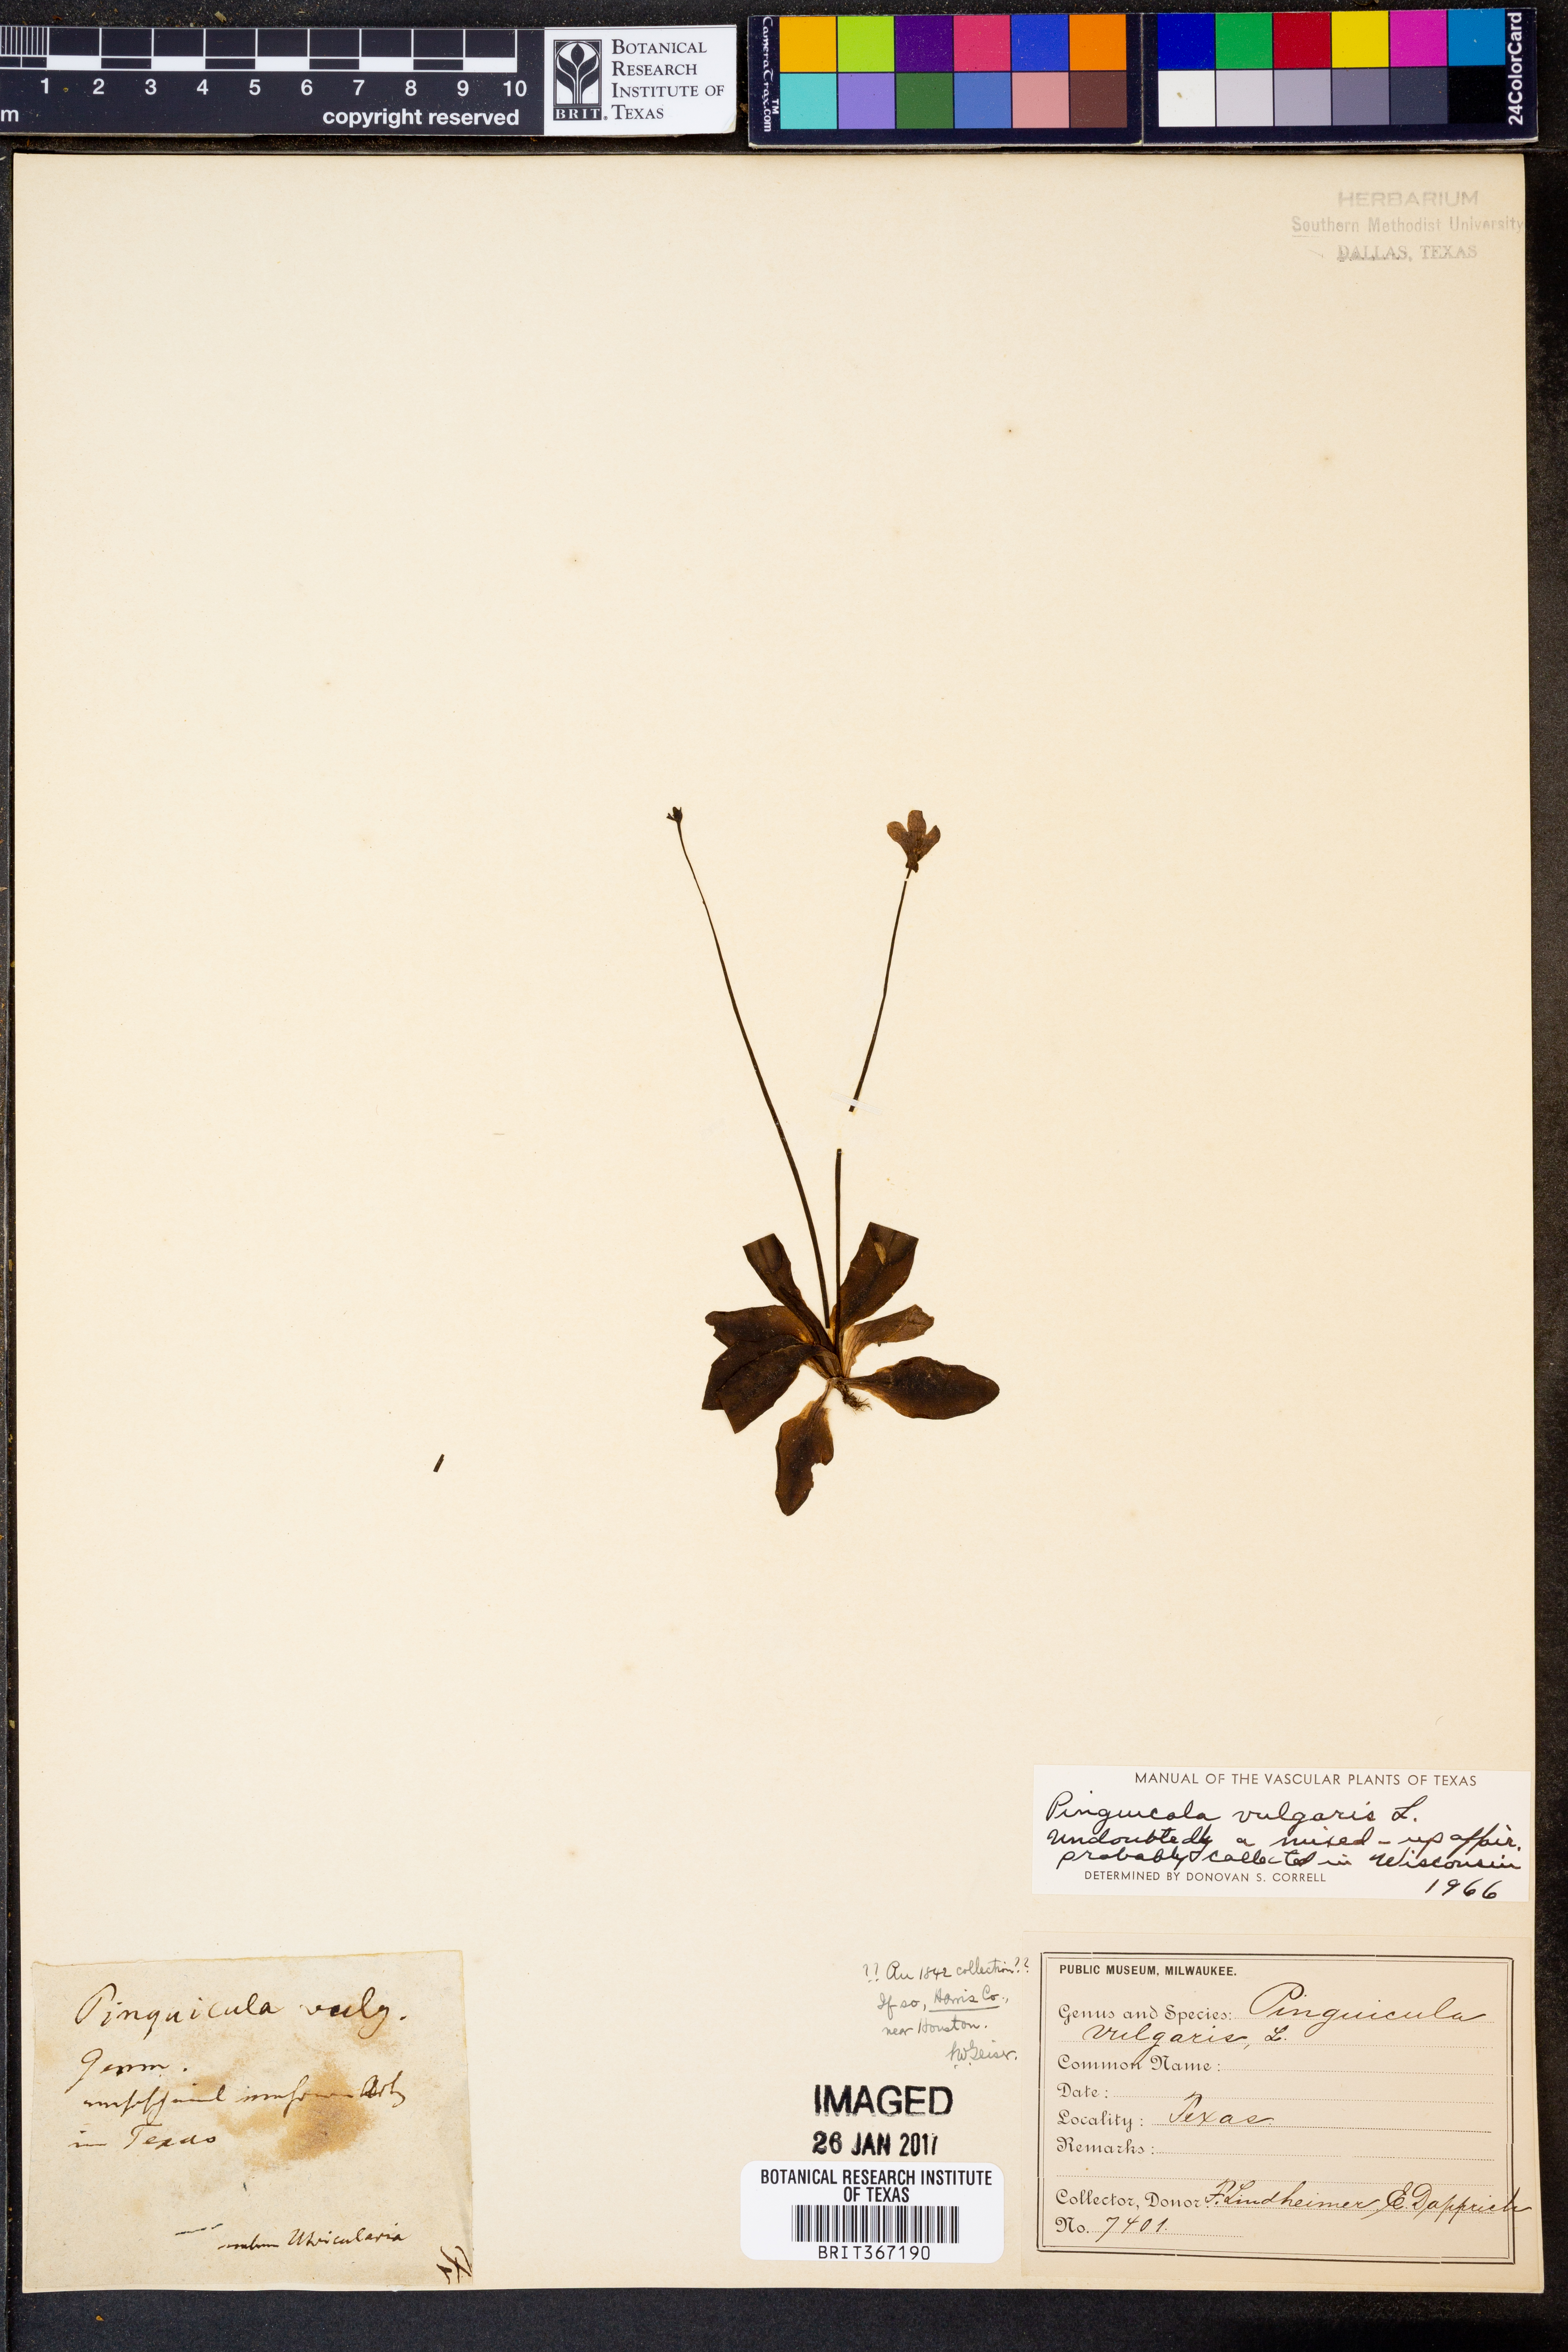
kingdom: Plantae
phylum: Tracheophyta
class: Magnoliopsida
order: Lamiales
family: Lentibulariaceae
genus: Pinguicula
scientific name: Pinguicula vulgaris
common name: Common butterwort
